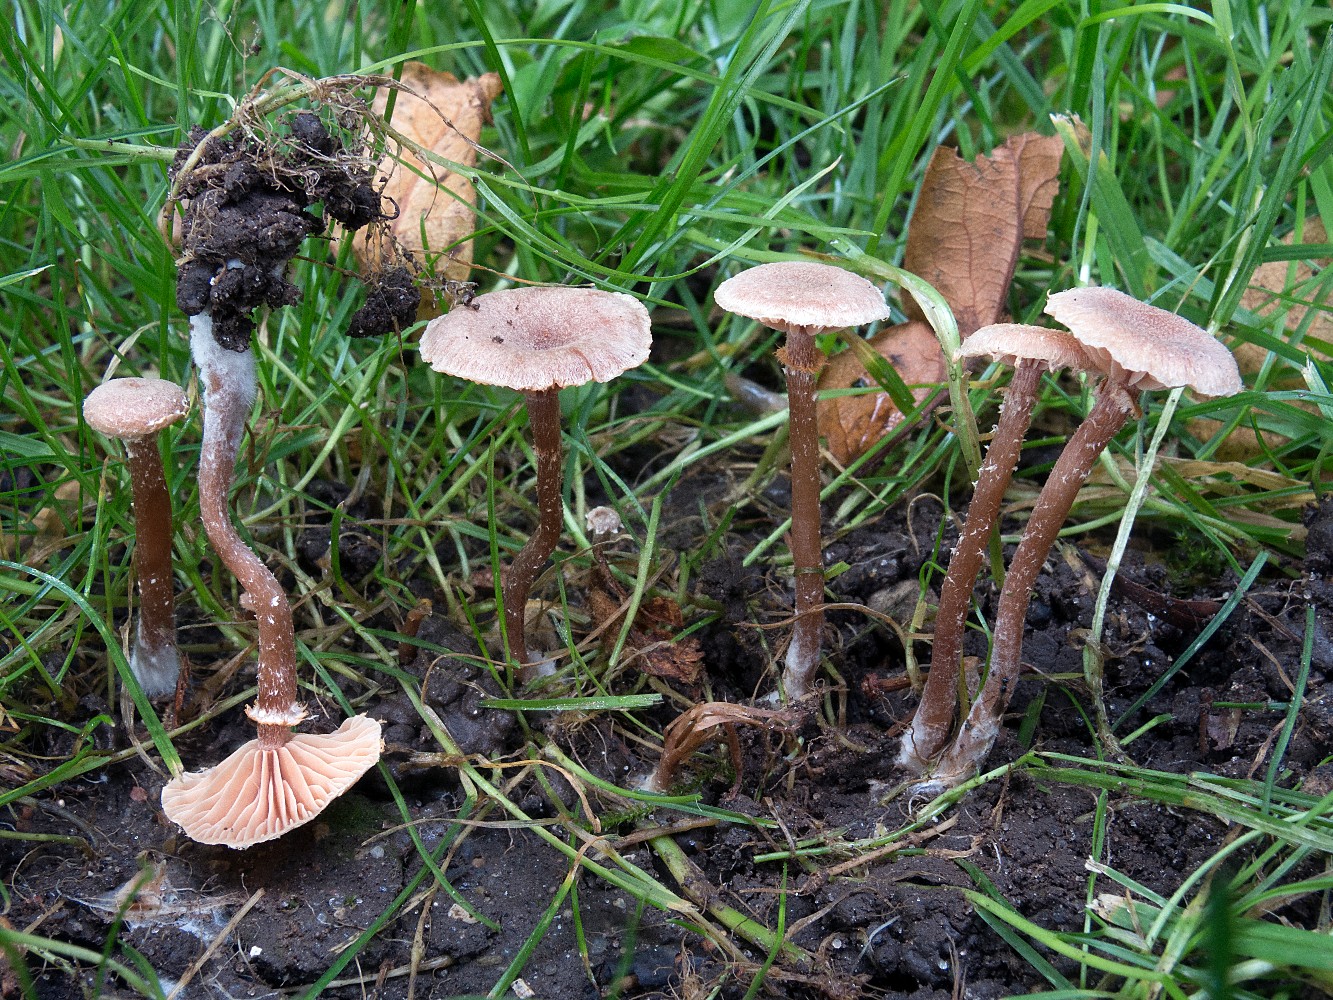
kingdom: Fungi
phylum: Basidiomycota
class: Agaricomycetes
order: Agaricales
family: Tubariaceae
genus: Tubaria
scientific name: Tubaria conspersa
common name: bleg fnughat
